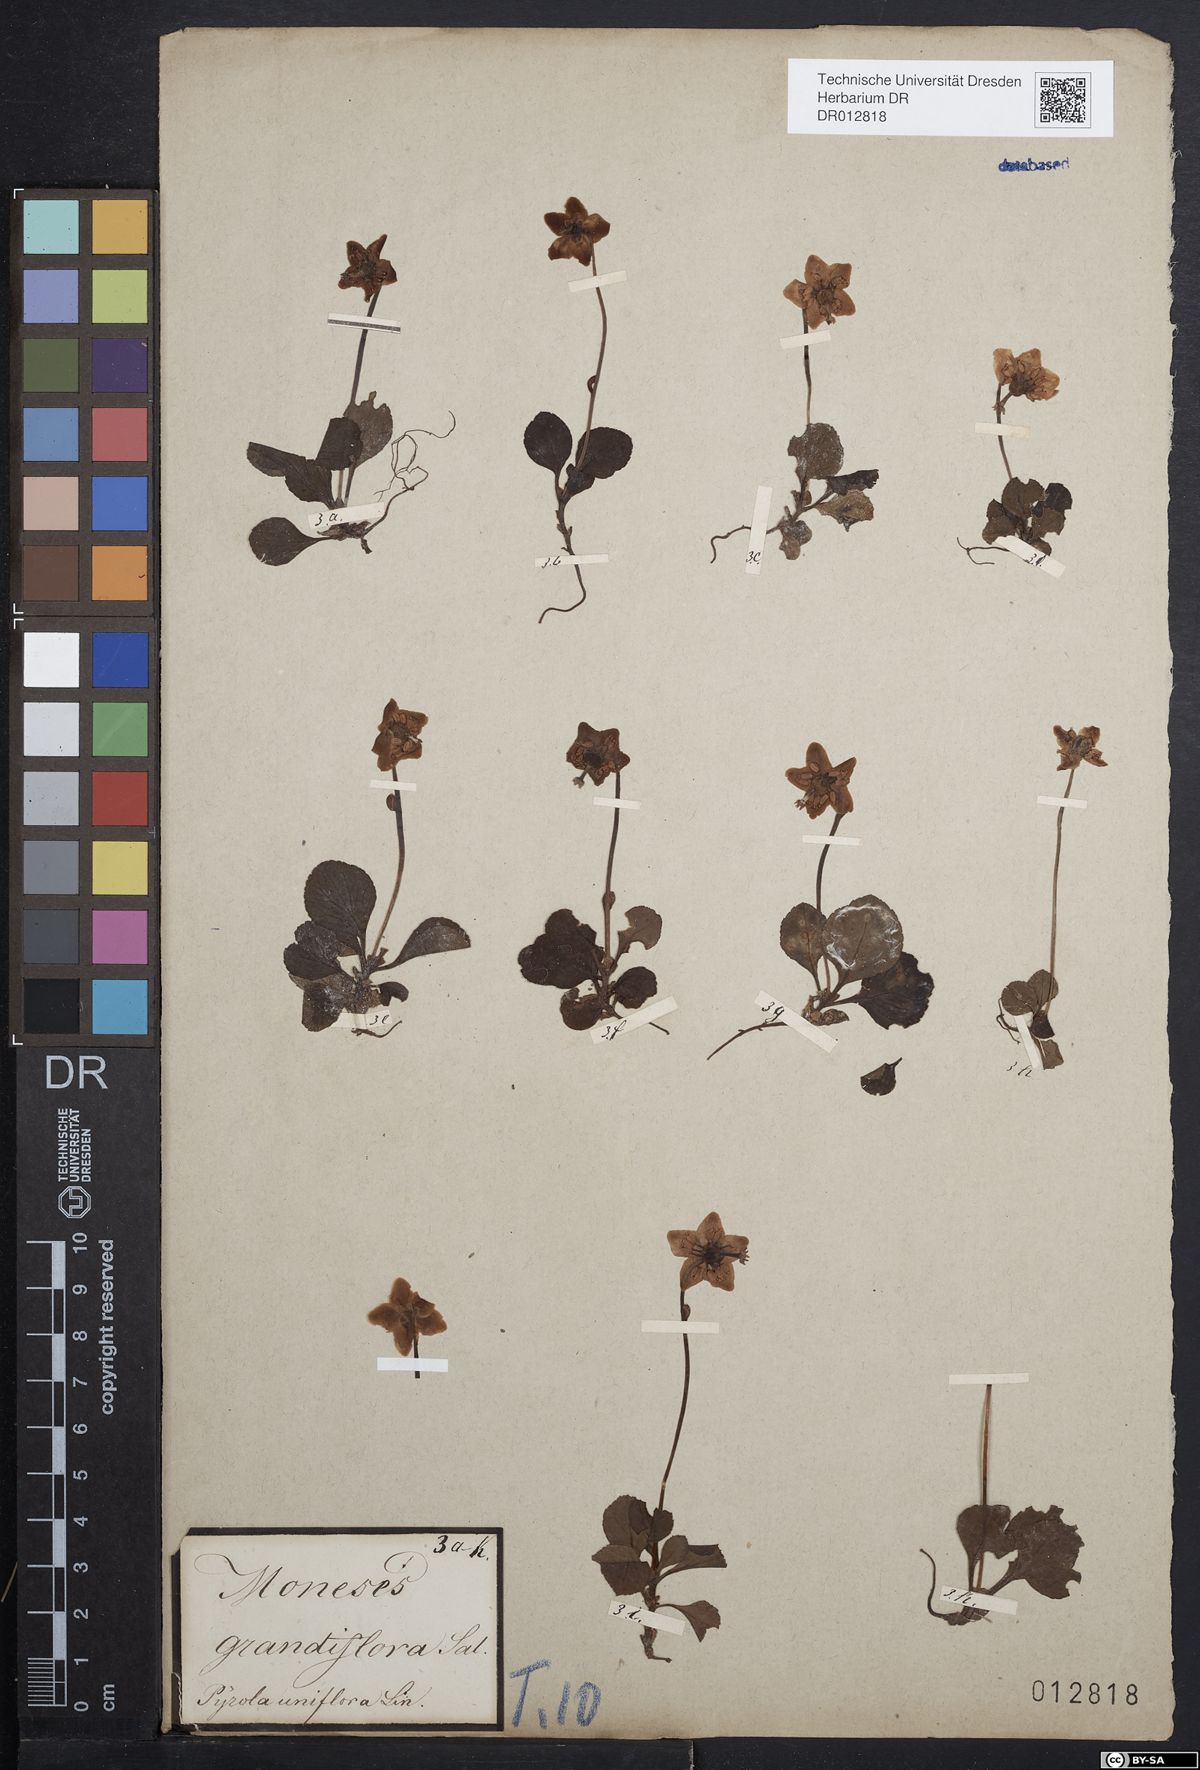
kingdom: Plantae
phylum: Tracheophyta
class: Magnoliopsida
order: Ericales
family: Ericaceae
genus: Moneses
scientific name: Moneses uniflora
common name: One-flowered wintergreen
